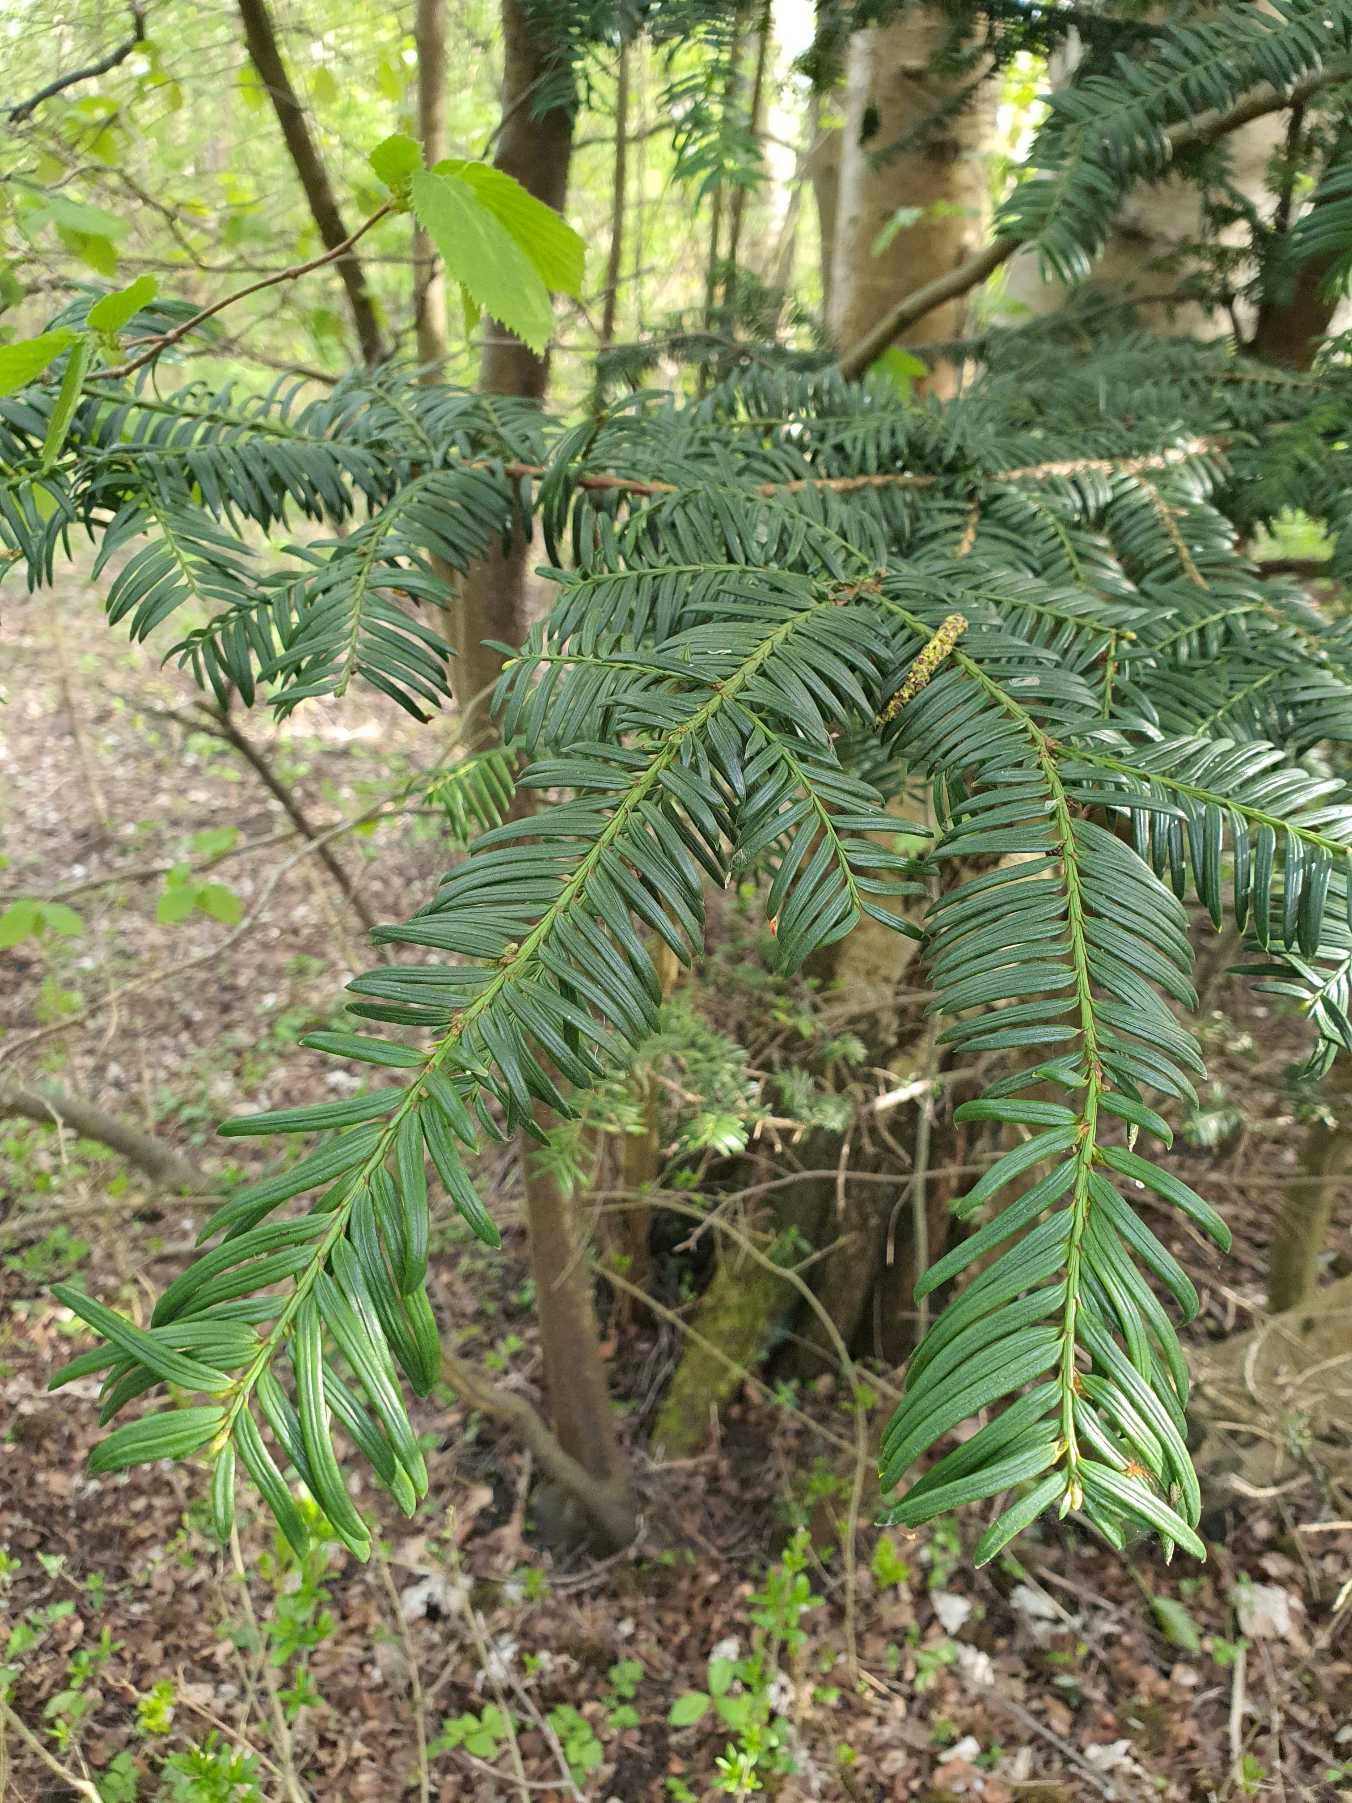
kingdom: Plantae
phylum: Tracheophyta
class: Pinopsida
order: Pinales
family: Taxaceae
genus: Taxus
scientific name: Taxus baccata
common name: Almindelig taks
